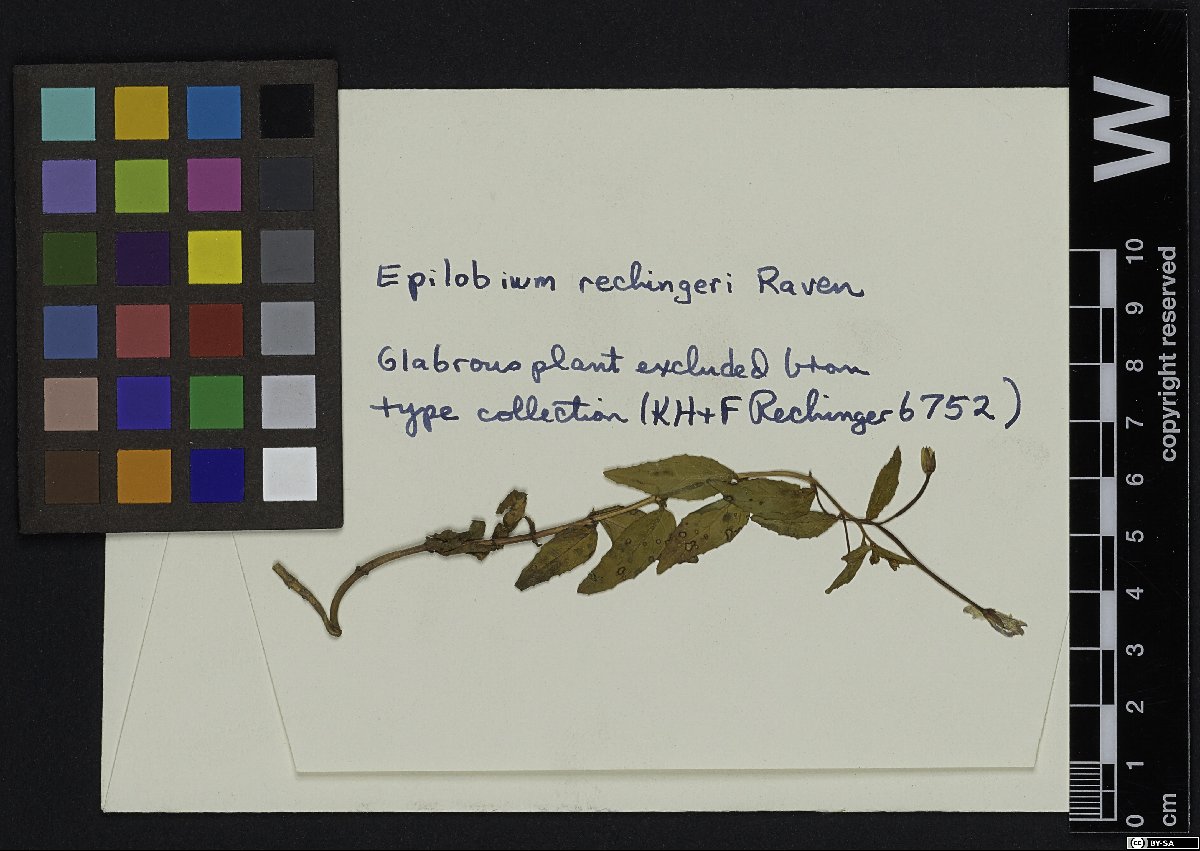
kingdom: Plantae
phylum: Tracheophyta
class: Magnoliopsida
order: Myrtales
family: Onagraceae
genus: Epilobium
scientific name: Epilobium rechingeri
